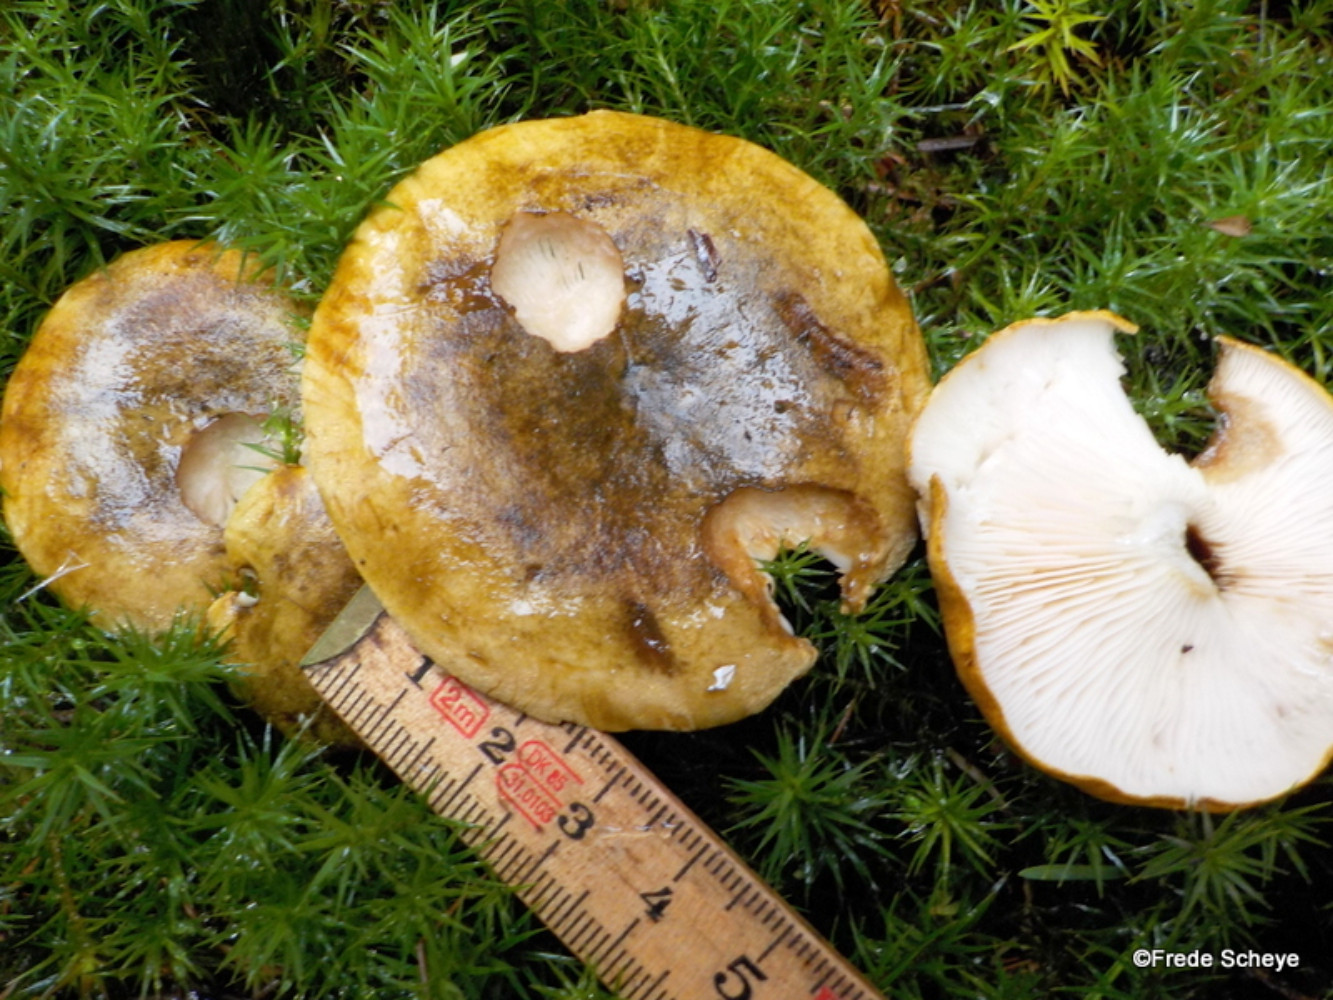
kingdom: Fungi
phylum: Basidiomycota
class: Agaricomycetes
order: Russulales
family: Russulaceae
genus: Lactarius
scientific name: Lactarius necator
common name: manddraber-mælkehat
